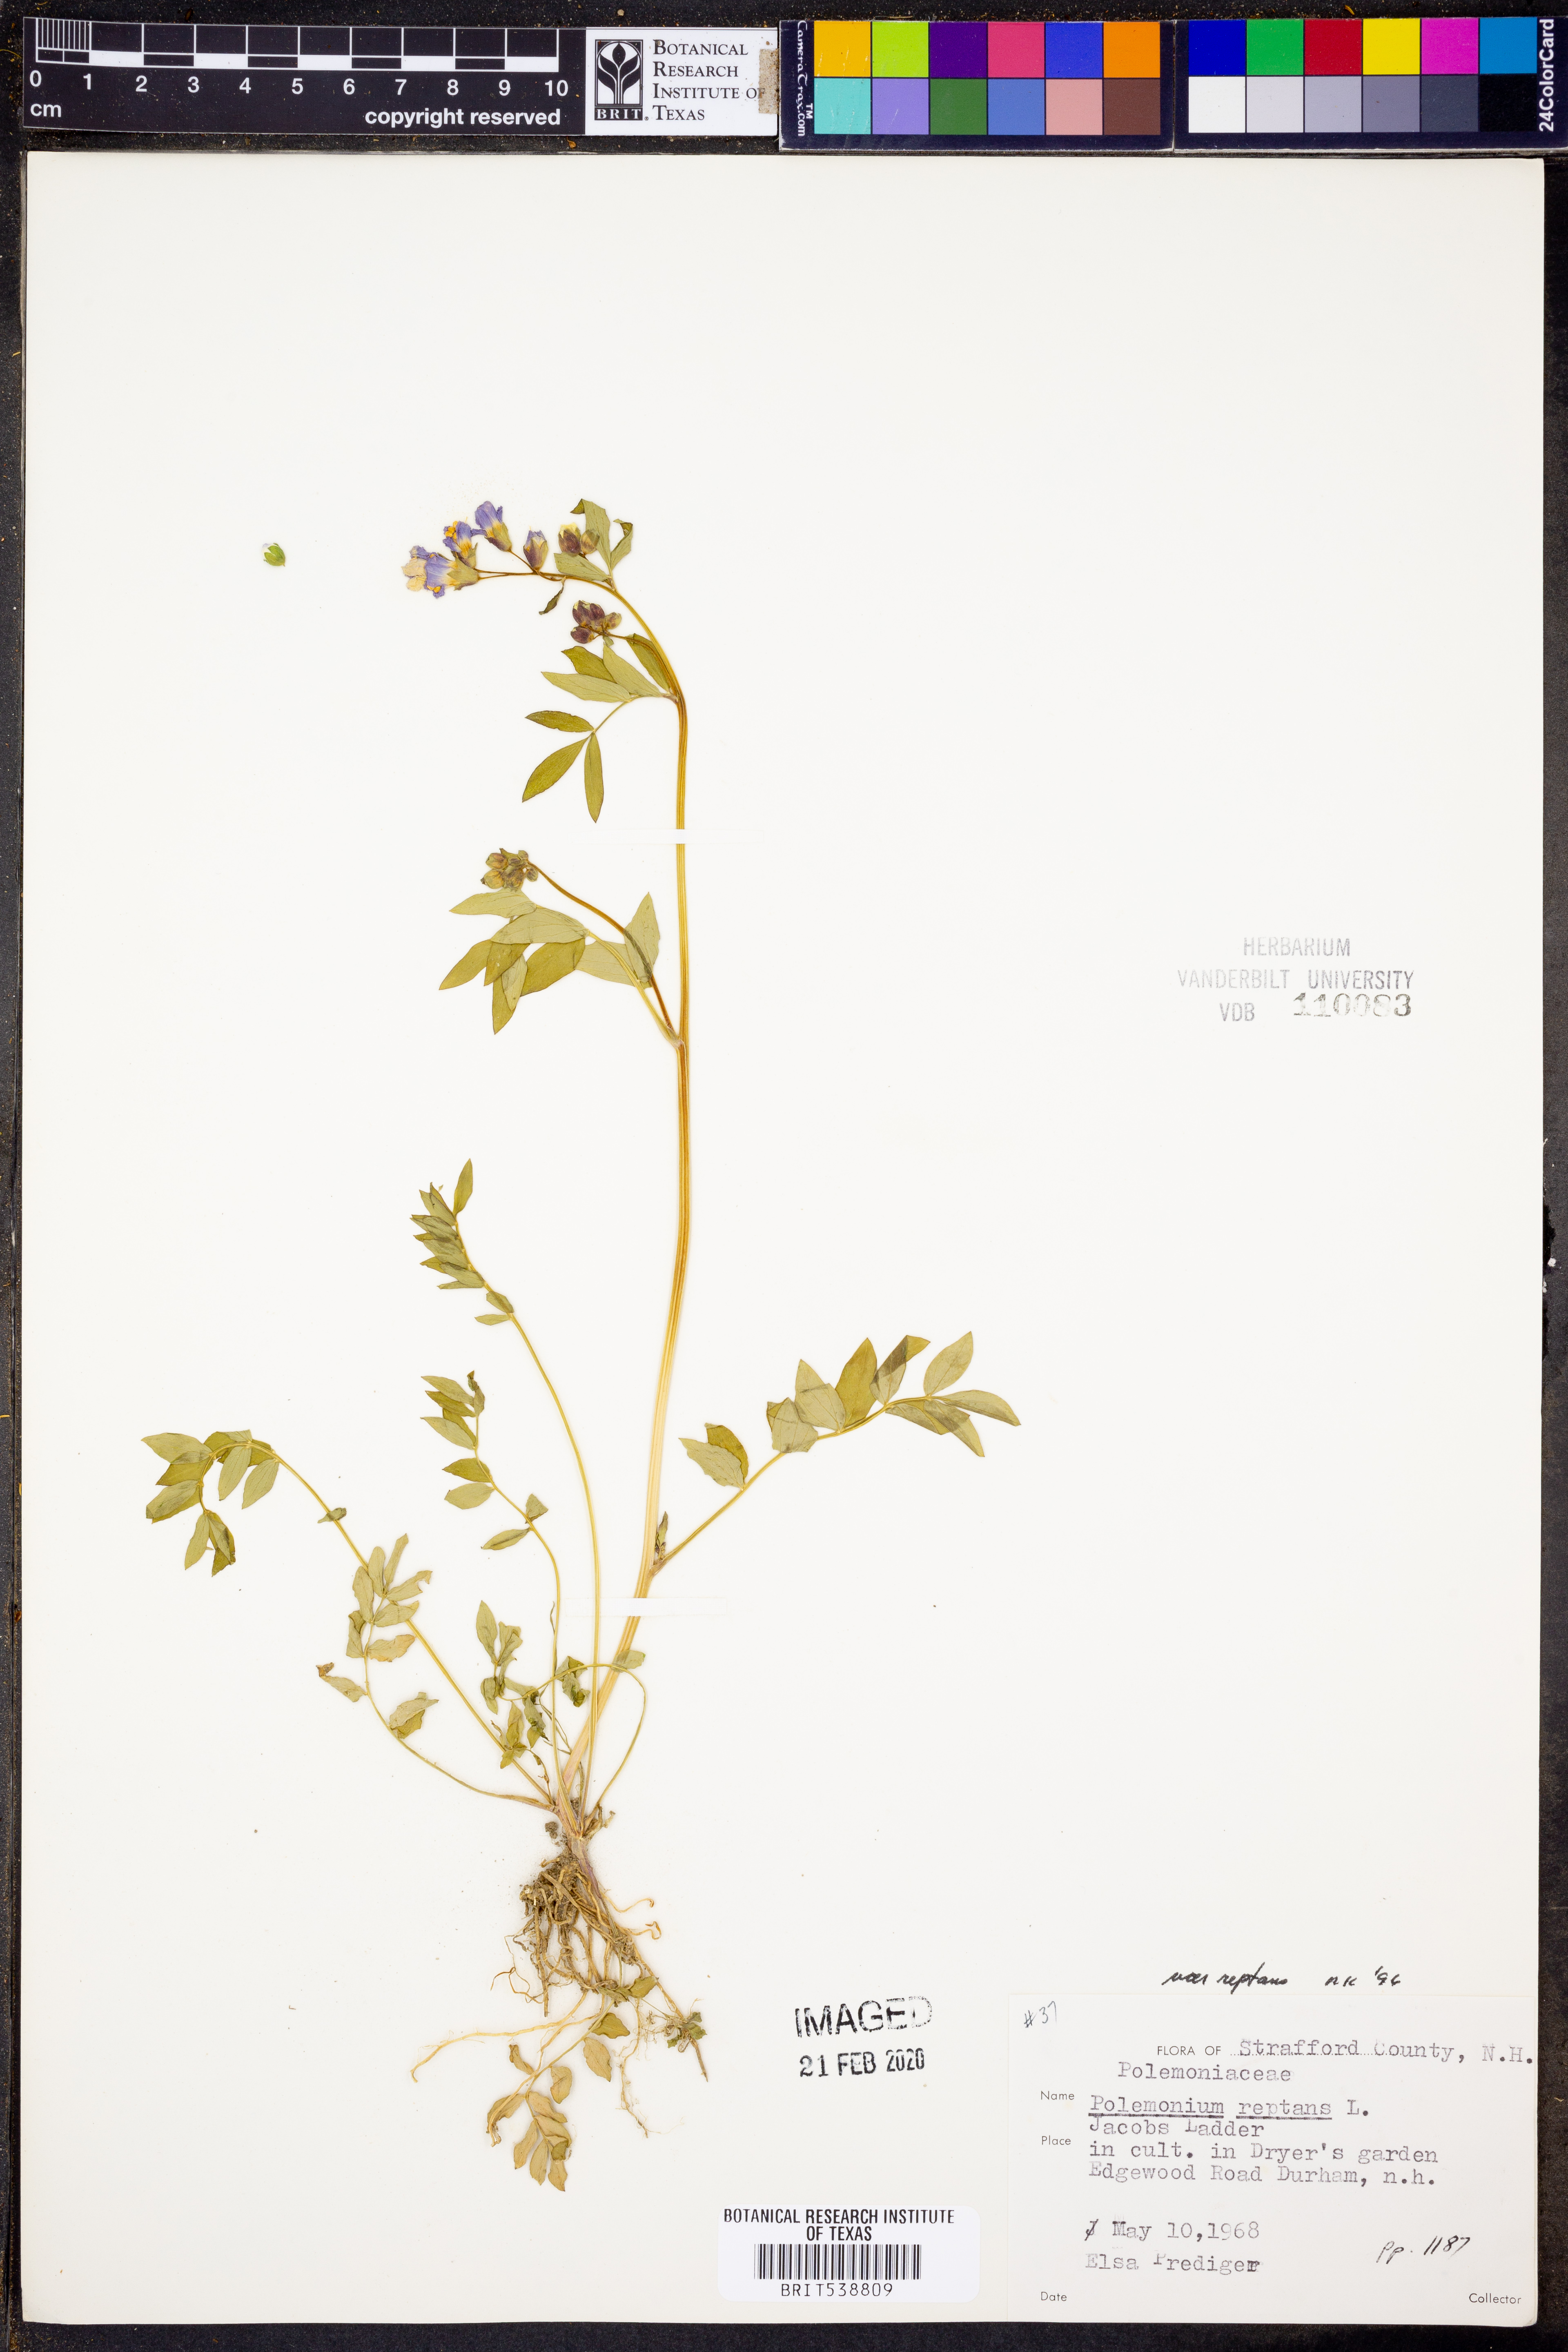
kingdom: Plantae
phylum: Tracheophyta
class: Magnoliopsida
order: Ericales
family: Polemoniaceae
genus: Polemonium
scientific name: Polemonium reptans
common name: Creeping jacob's-ladder
